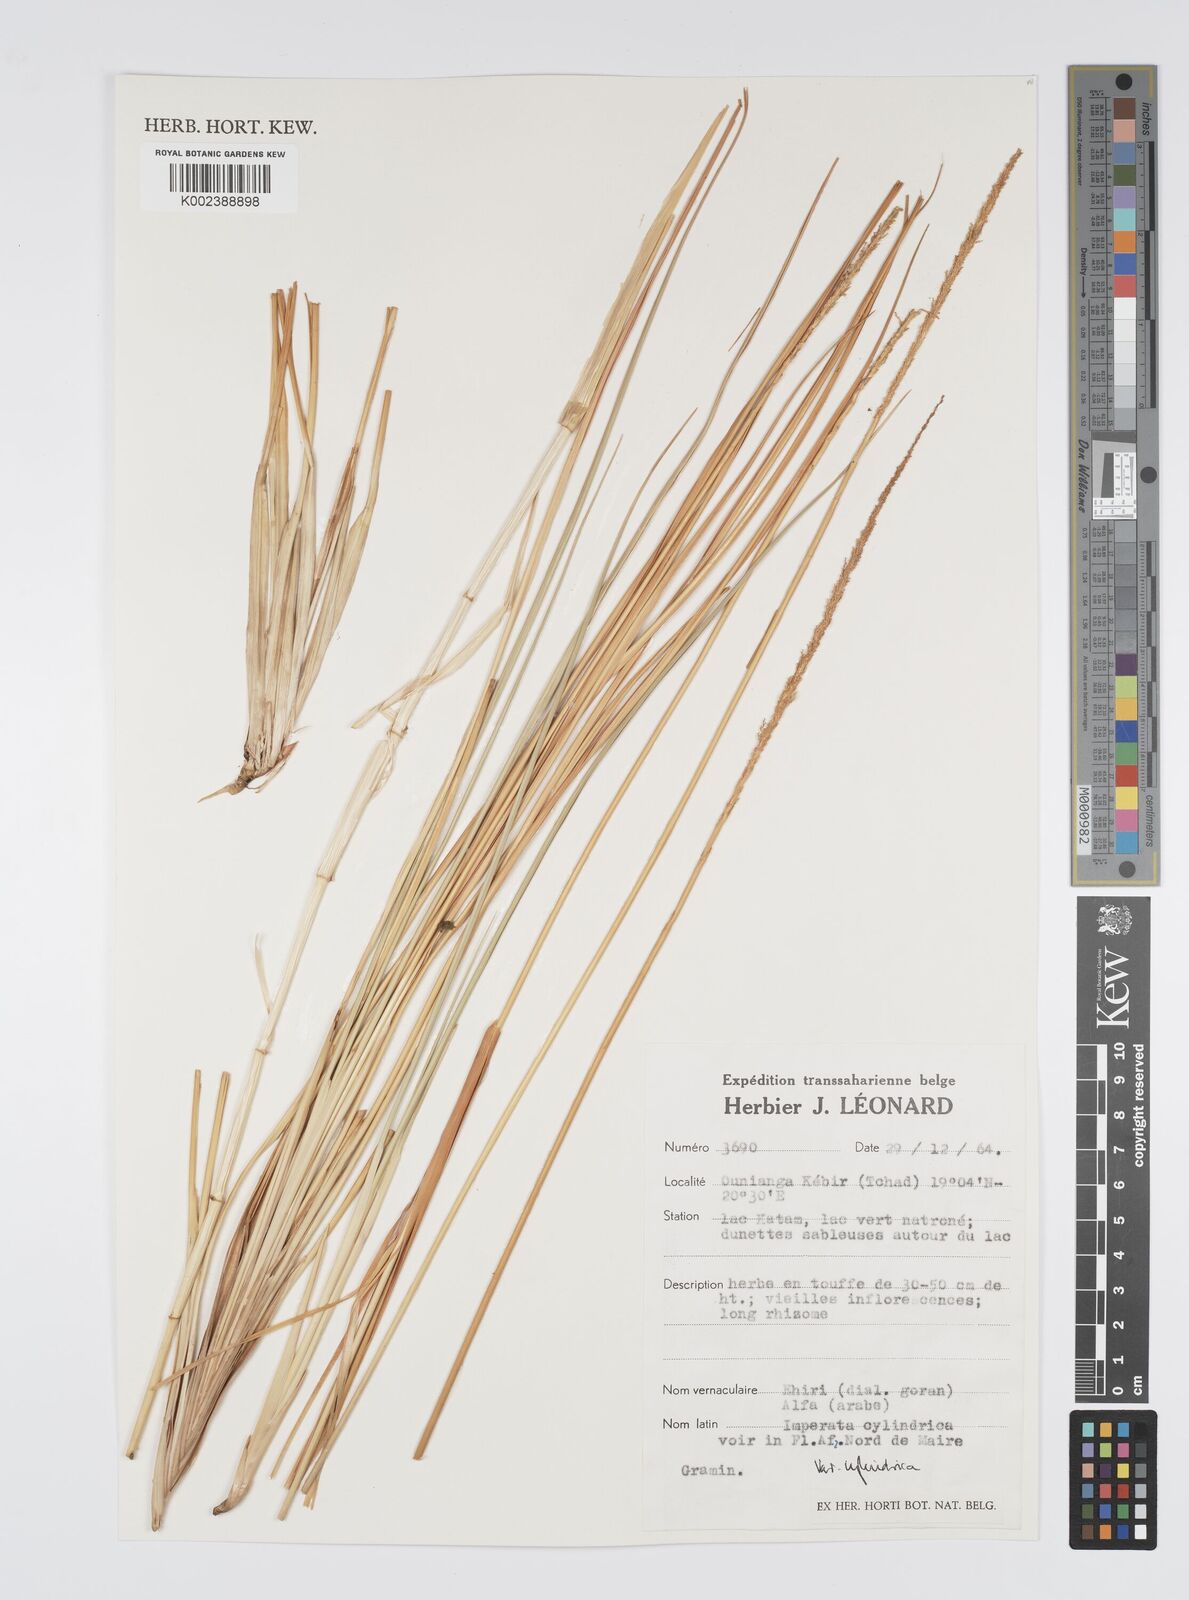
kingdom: Plantae
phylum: Tracheophyta
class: Liliopsida
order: Poales
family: Poaceae
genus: Imperata
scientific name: Imperata cylindrica
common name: Cogongrass
